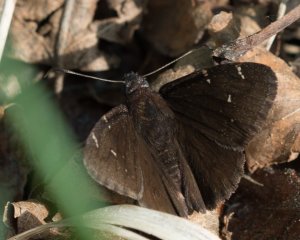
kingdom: Animalia
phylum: Arthropoda
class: Insecta
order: Lepidoptera
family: Hesperiidae
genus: Autochton
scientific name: Autochton
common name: Northern Cloudywing
